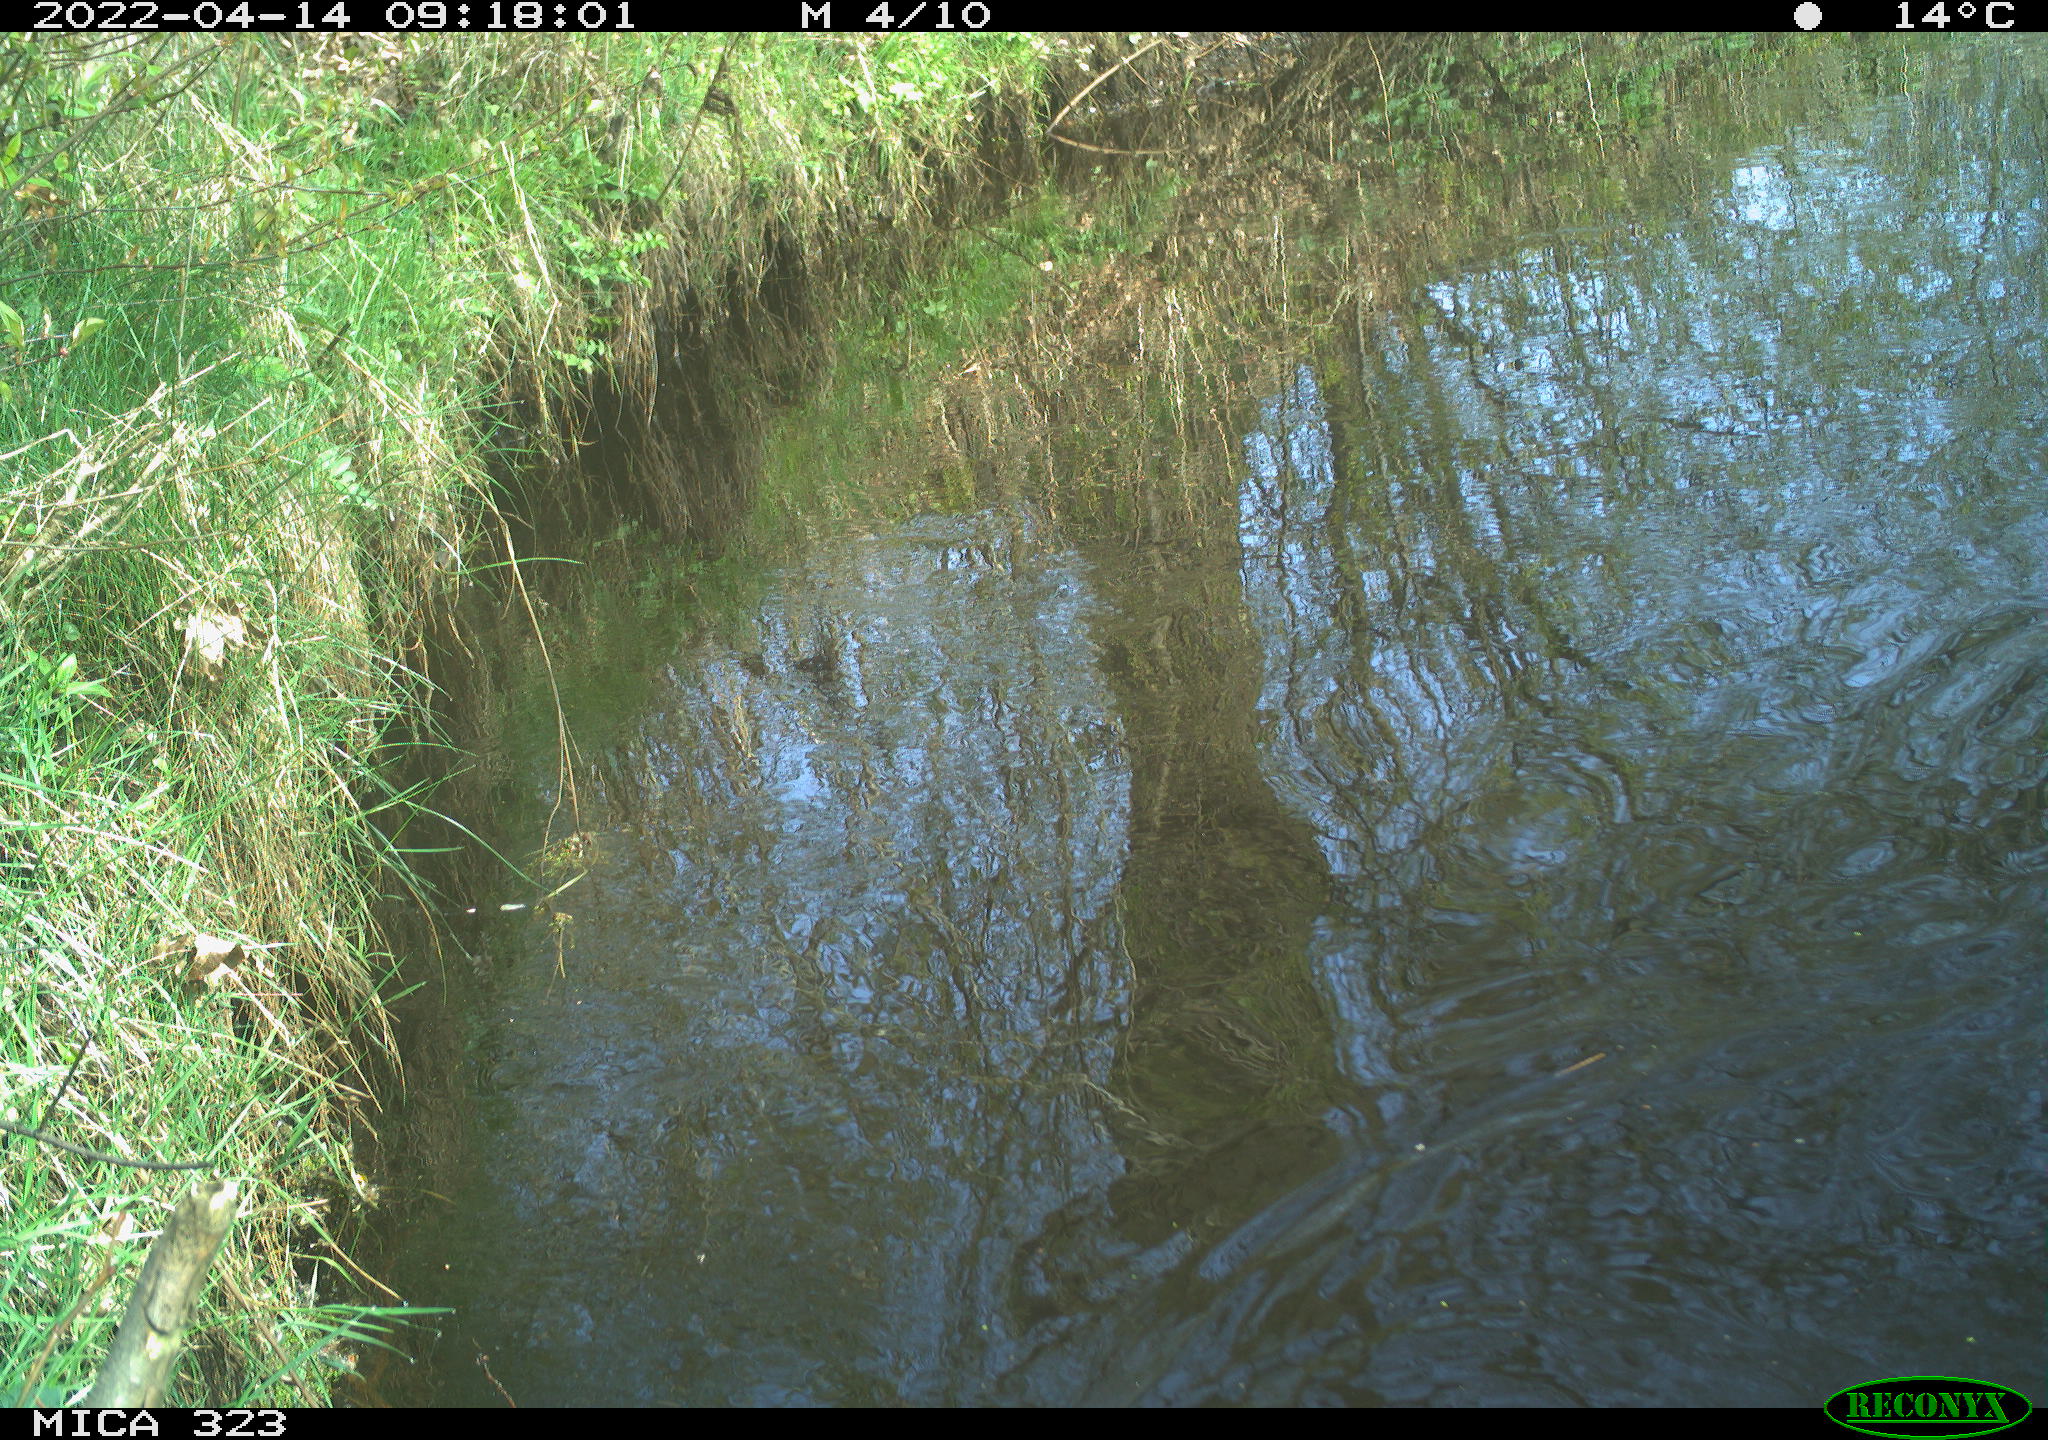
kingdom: Animalia
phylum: Chordata
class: Aves
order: Gruiformes
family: Rallidae
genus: Gallinula
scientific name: Gallinula chloropus
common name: Common moorhen
